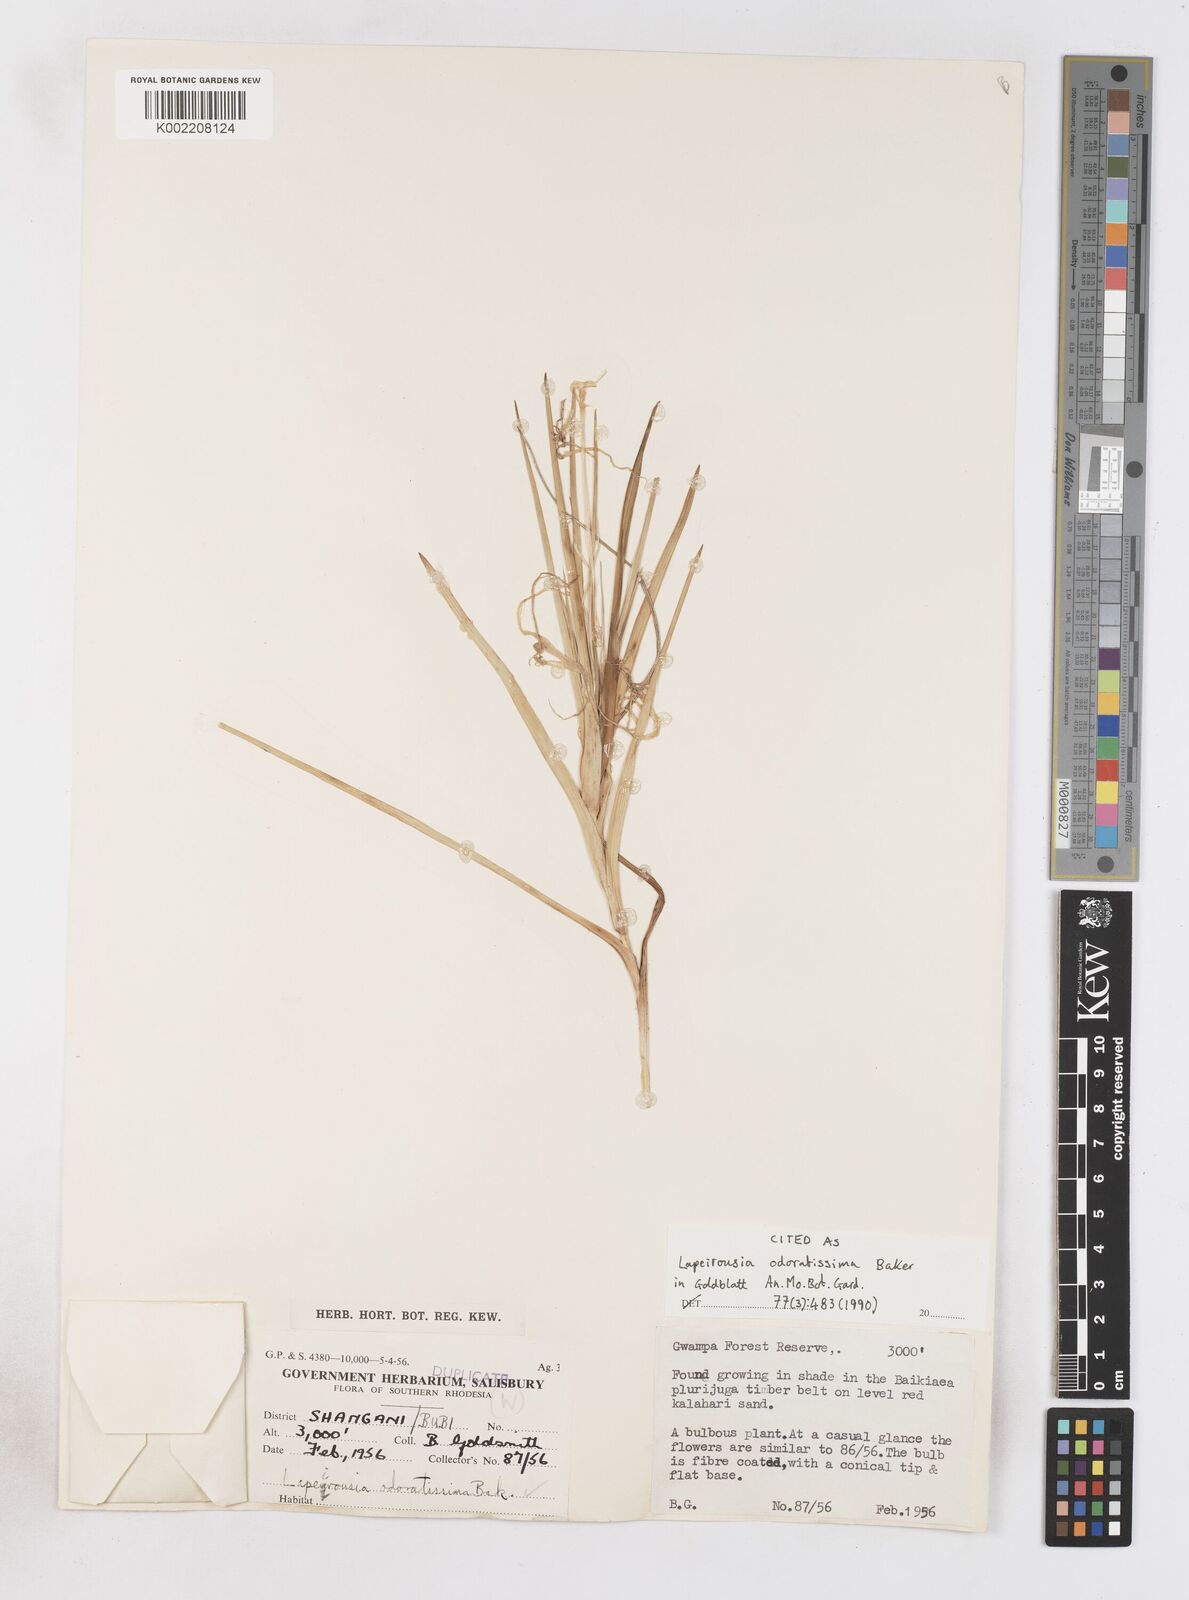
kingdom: Plantae
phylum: Tracheophyta
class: Liliopsida
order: Asparagales
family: Iridaceae
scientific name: Iridaceae
